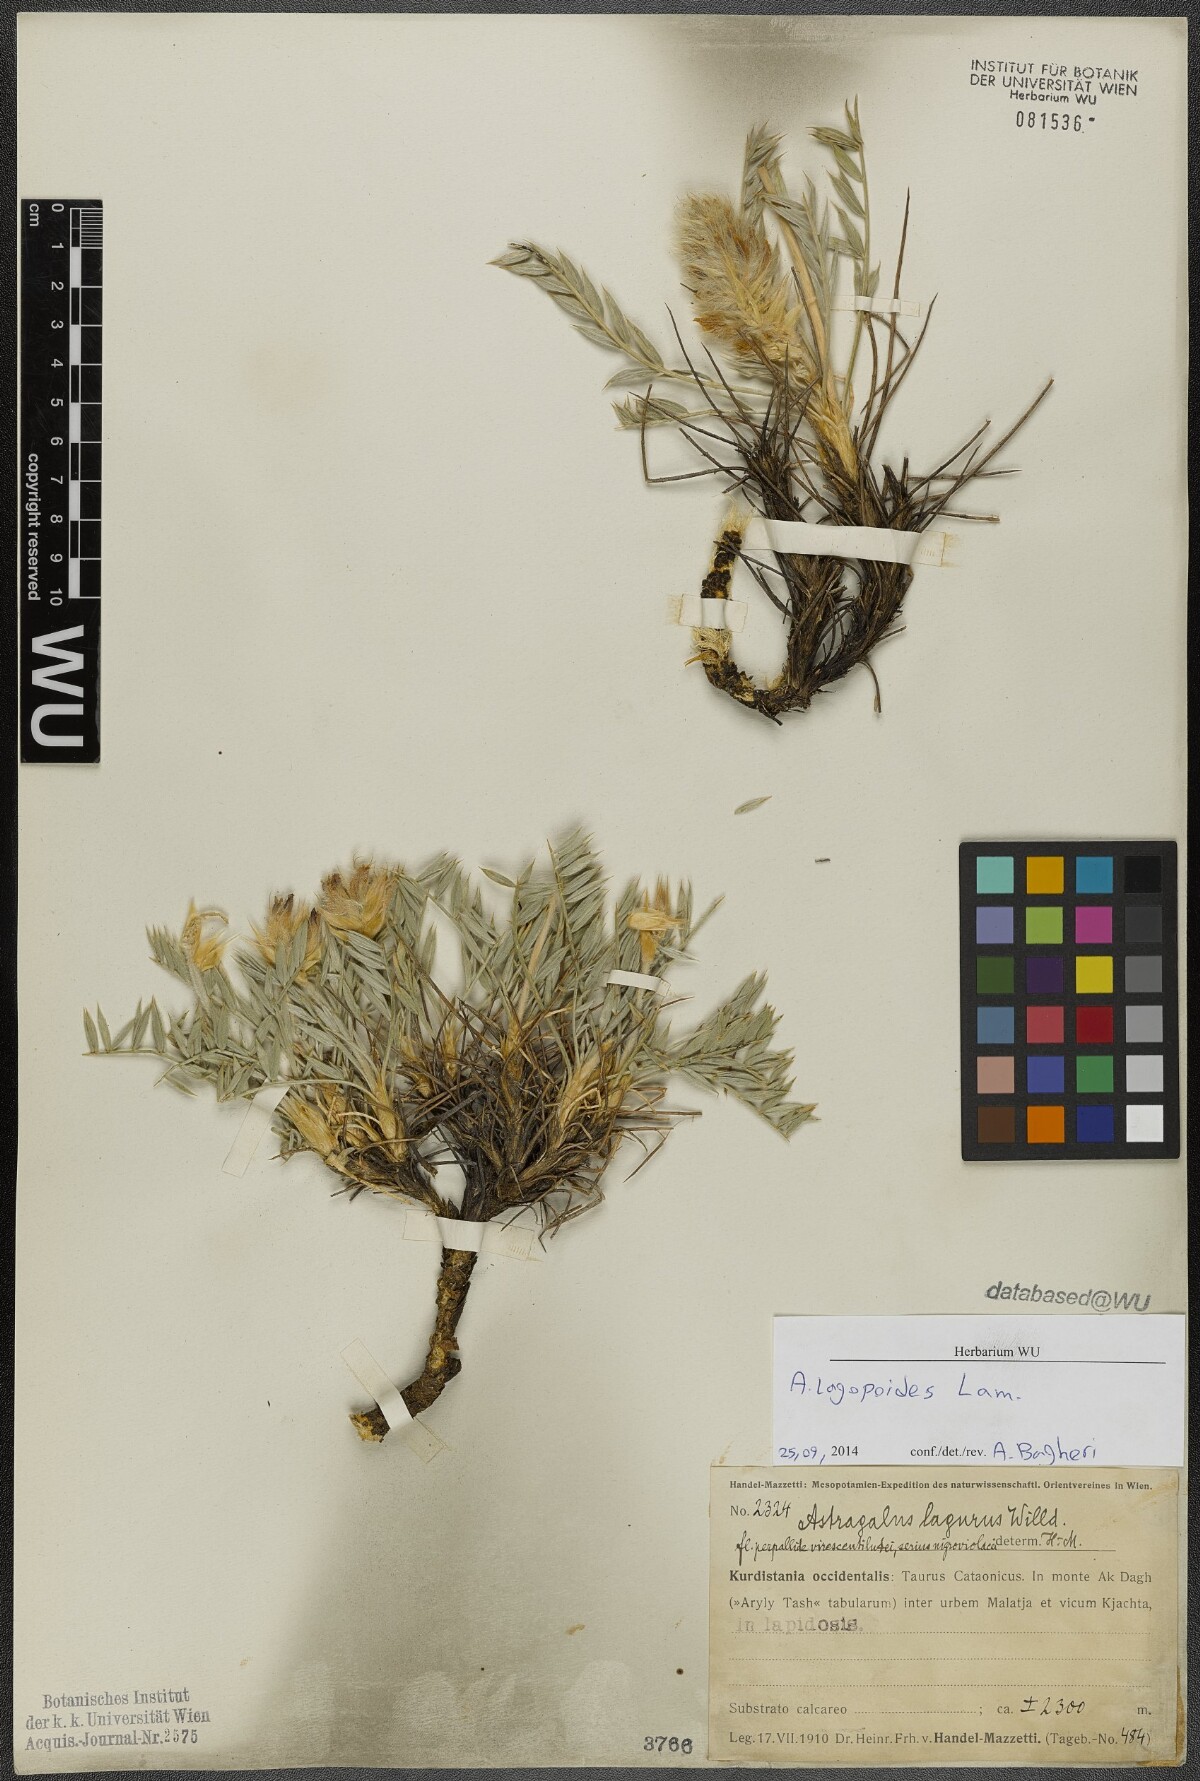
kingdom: Plantae
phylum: Tracheophyta
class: Magnoliopsida
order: Fabales
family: Fabaceae
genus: Astragalus
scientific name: Astragalus lagopoides
